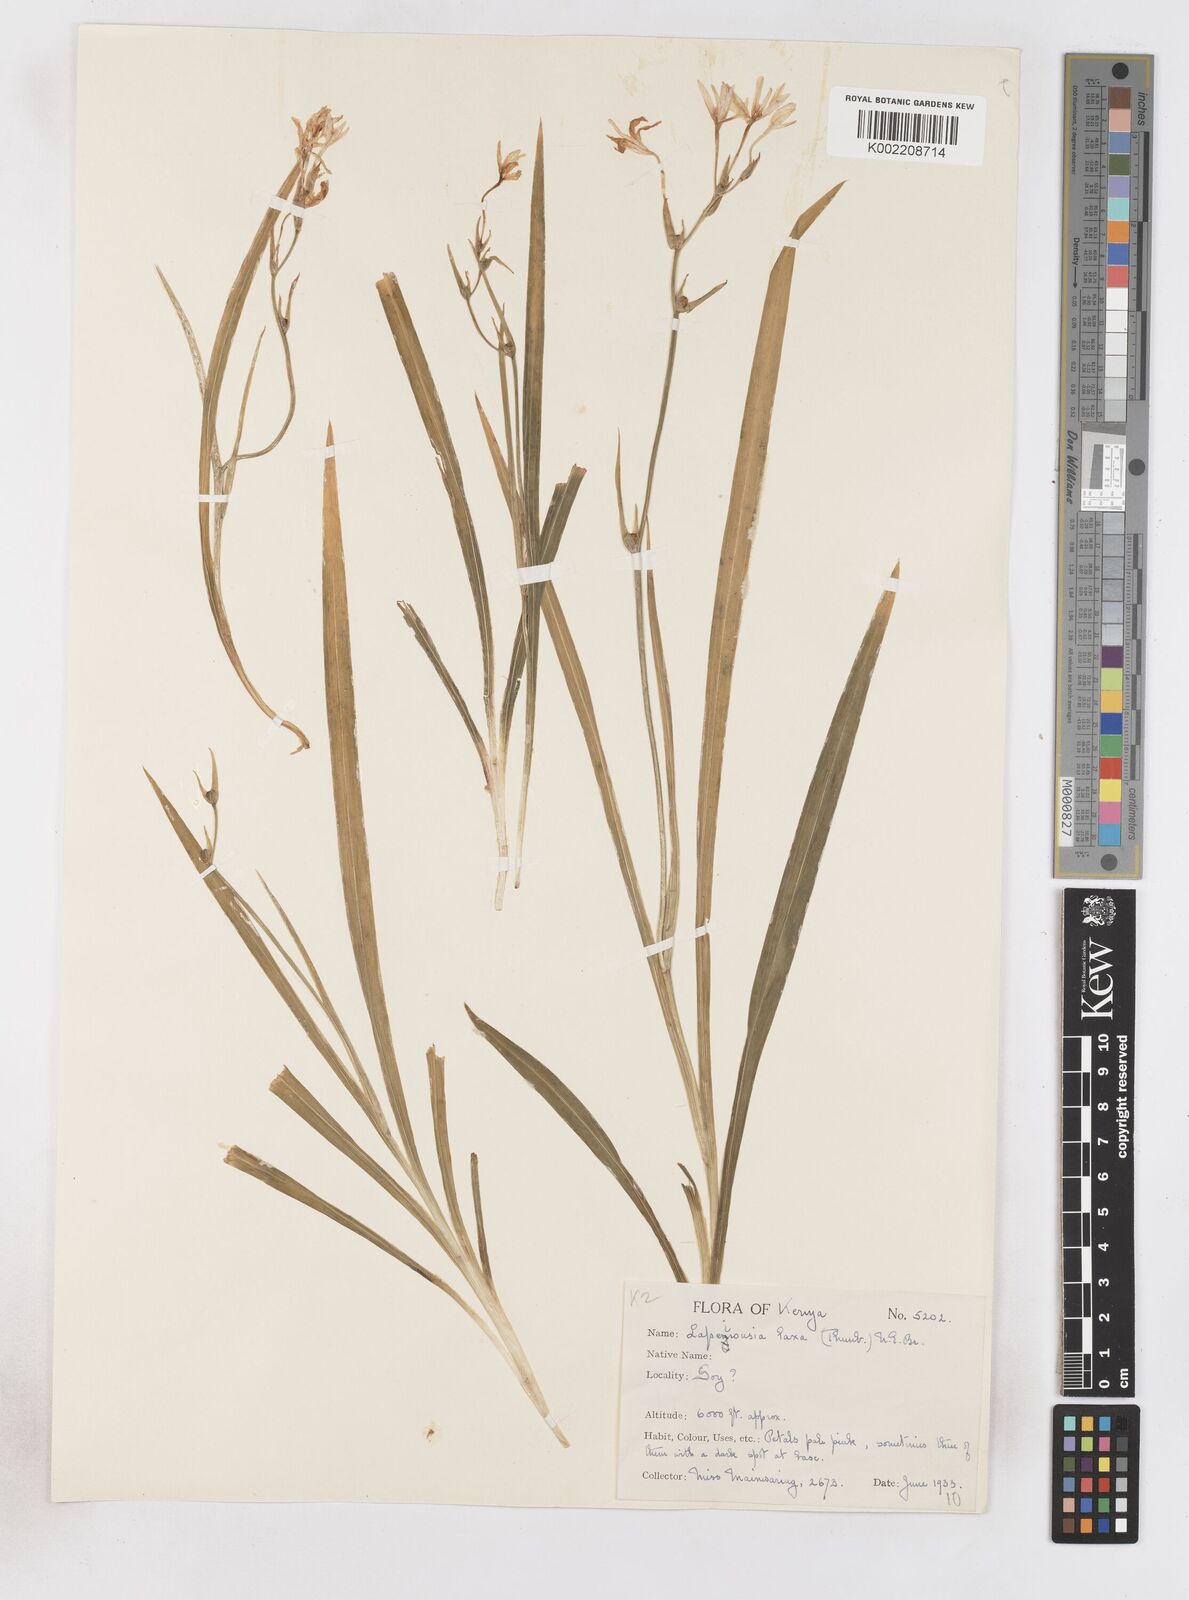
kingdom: Plantae
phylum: Tracheophyta
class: Liliopsida
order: Asparagales
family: Iridaceae
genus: Freesia
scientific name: Freesia laxa
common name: False freesia
